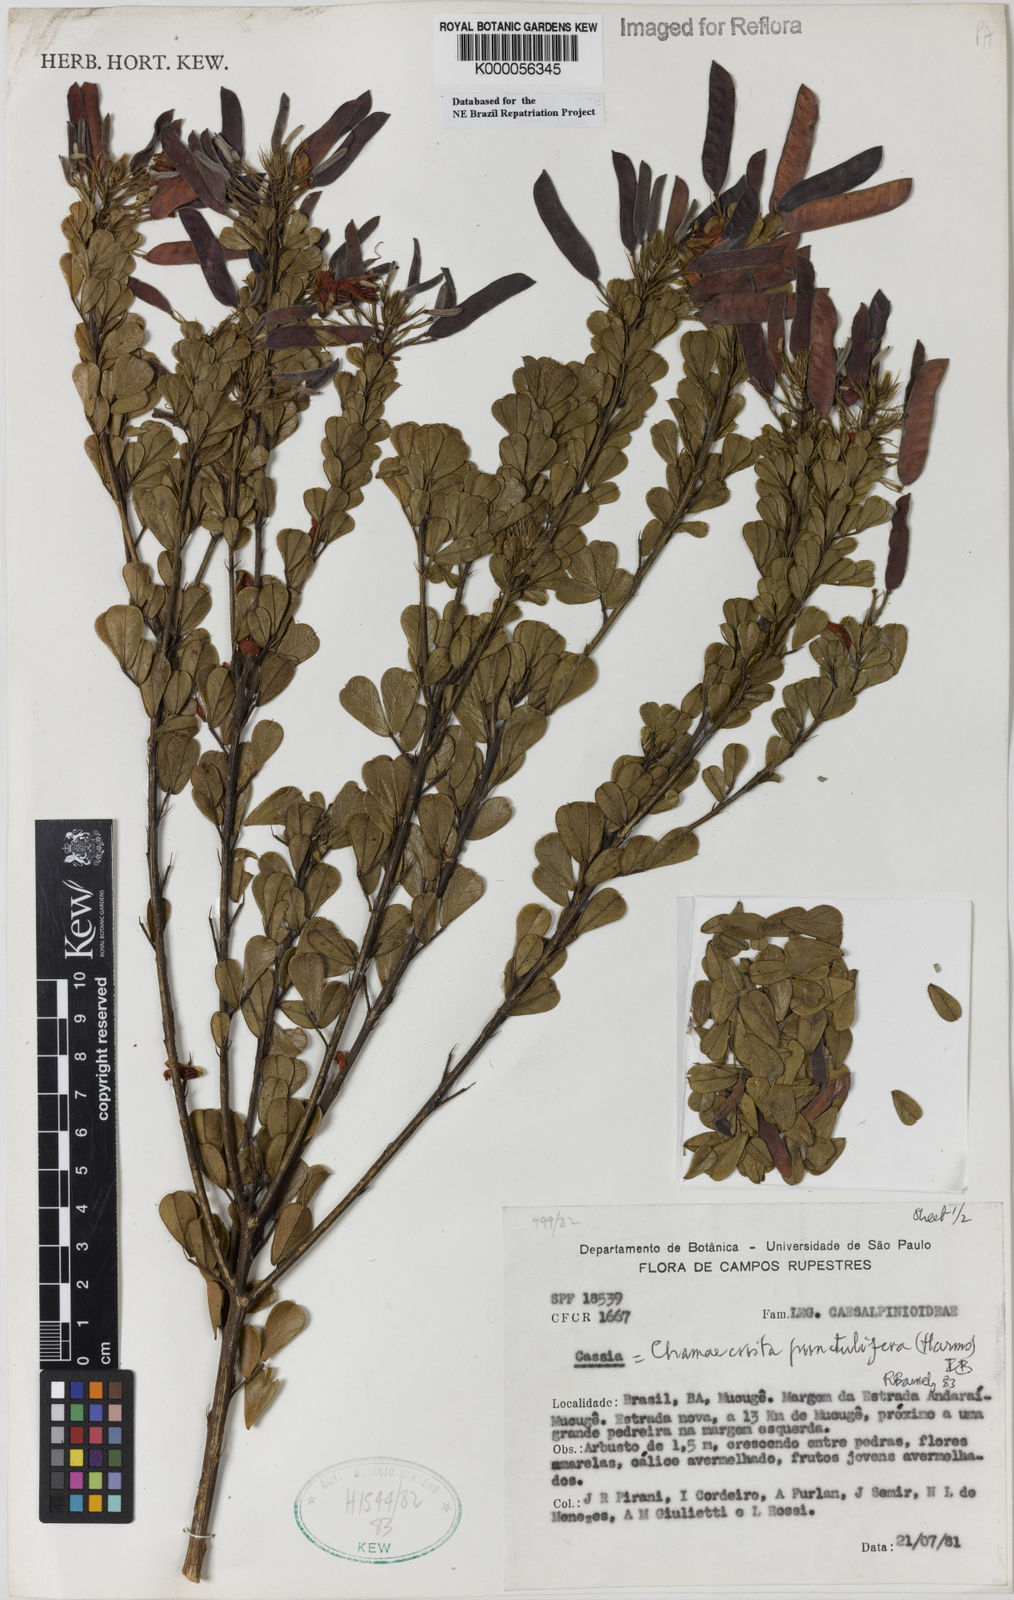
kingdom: Plantae
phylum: Tracheophyta
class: Magnoliopsida
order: Fabales
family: Fabaceae
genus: Chamaecrista
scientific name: Chamaecrista punctulifera
